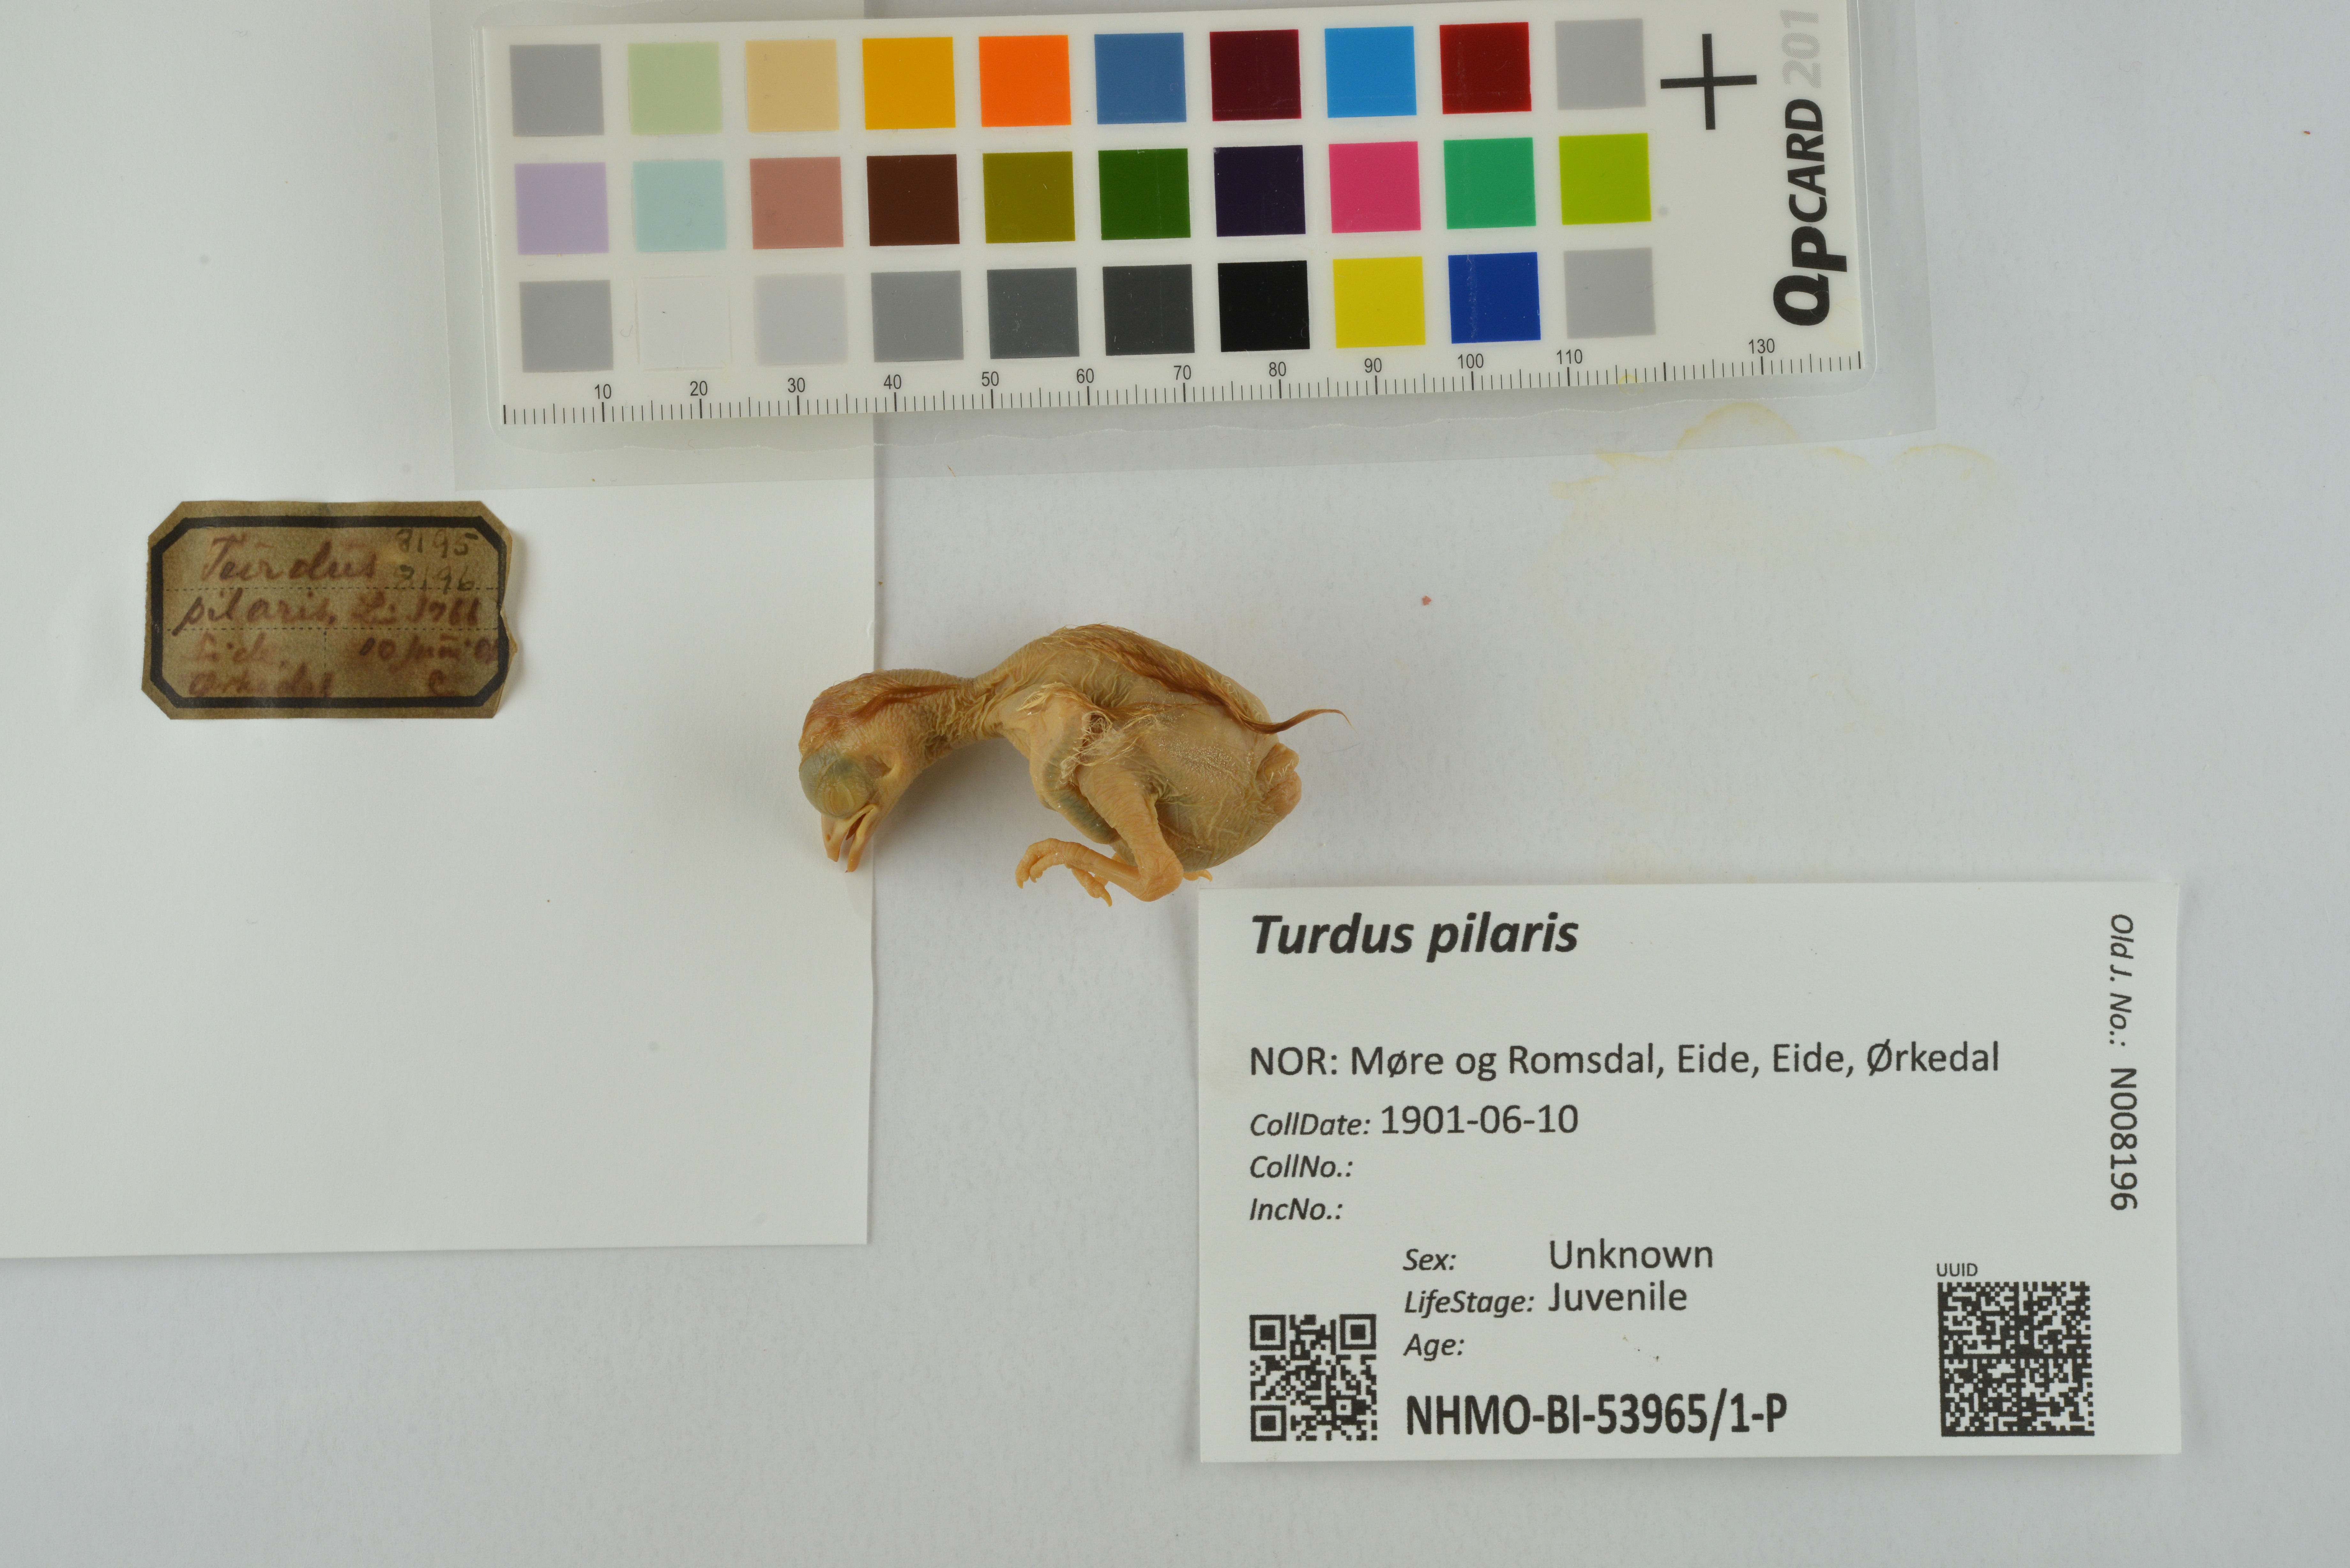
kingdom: Animalia
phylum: Chordata
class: Aves
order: Passeriformes
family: Turdidae
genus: Turdus
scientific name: Turdus pilaris
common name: Fieldfare
